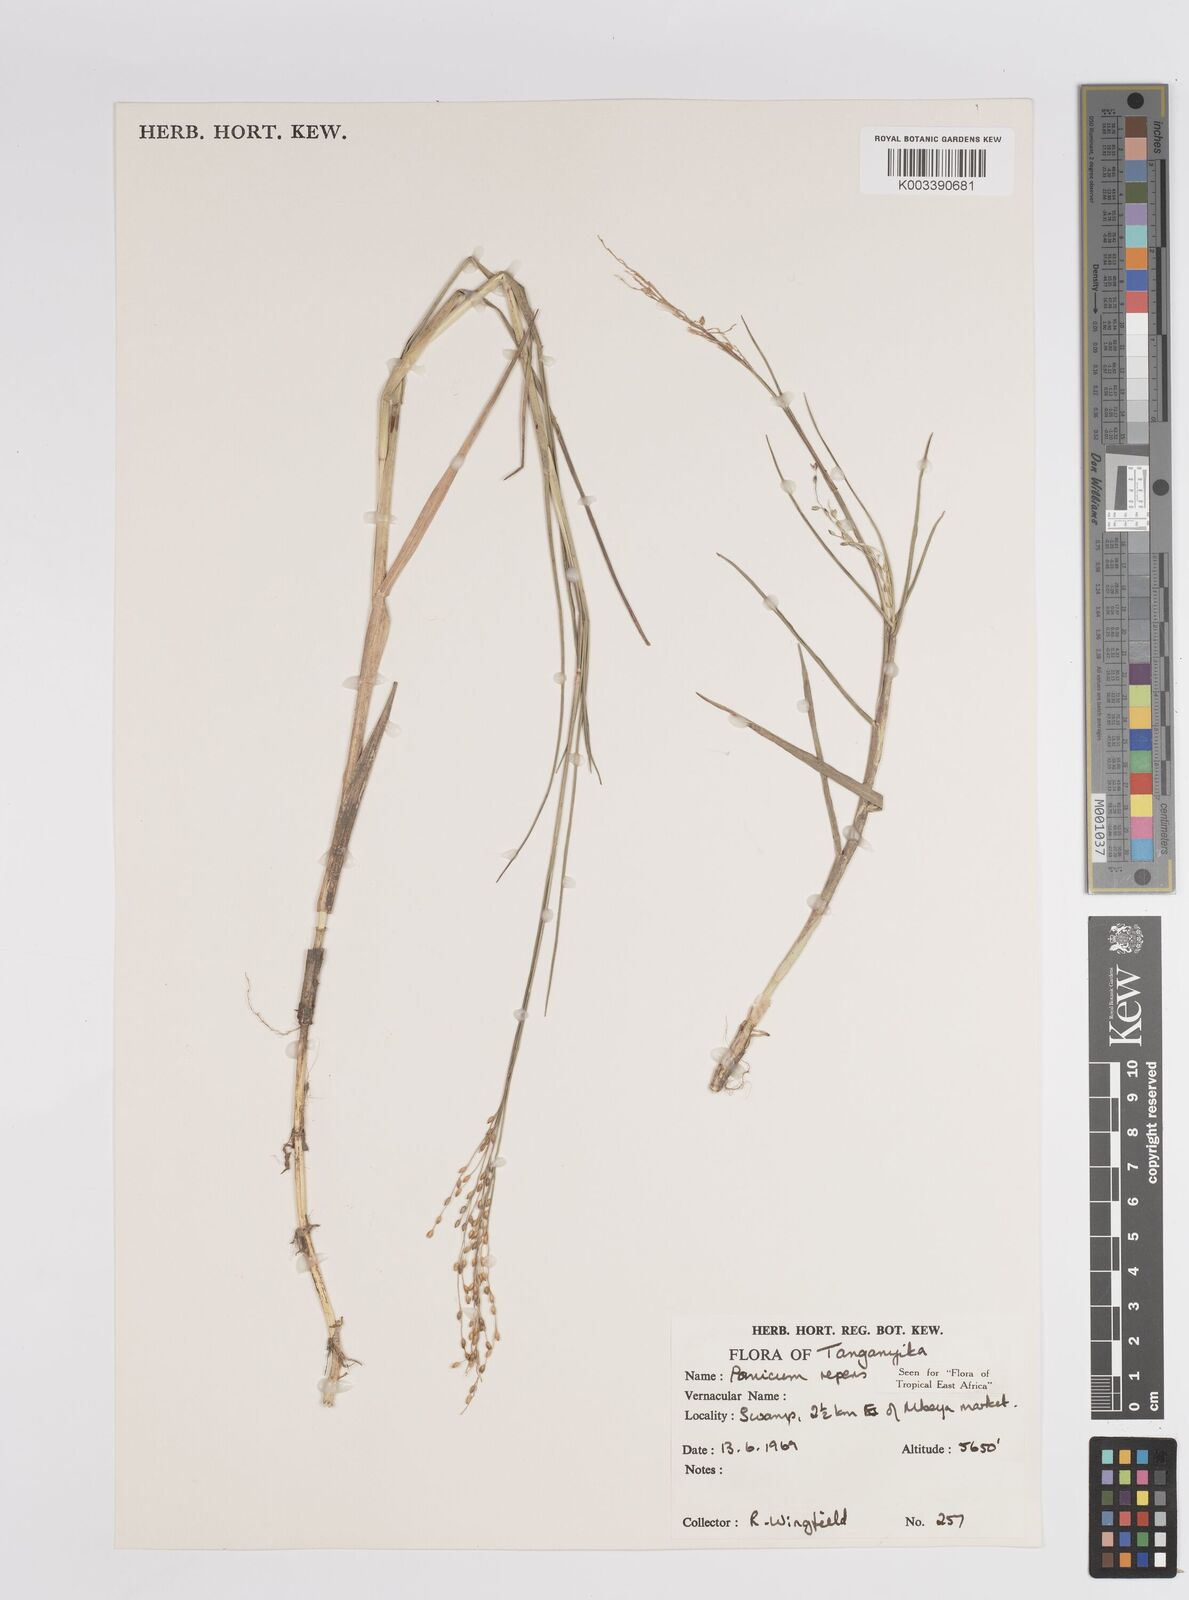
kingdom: Plantae
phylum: Tracheophyta
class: Liliopsida
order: Poales
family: Poaceae
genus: Panicum
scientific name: Panicum repens
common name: Torpedo grass
